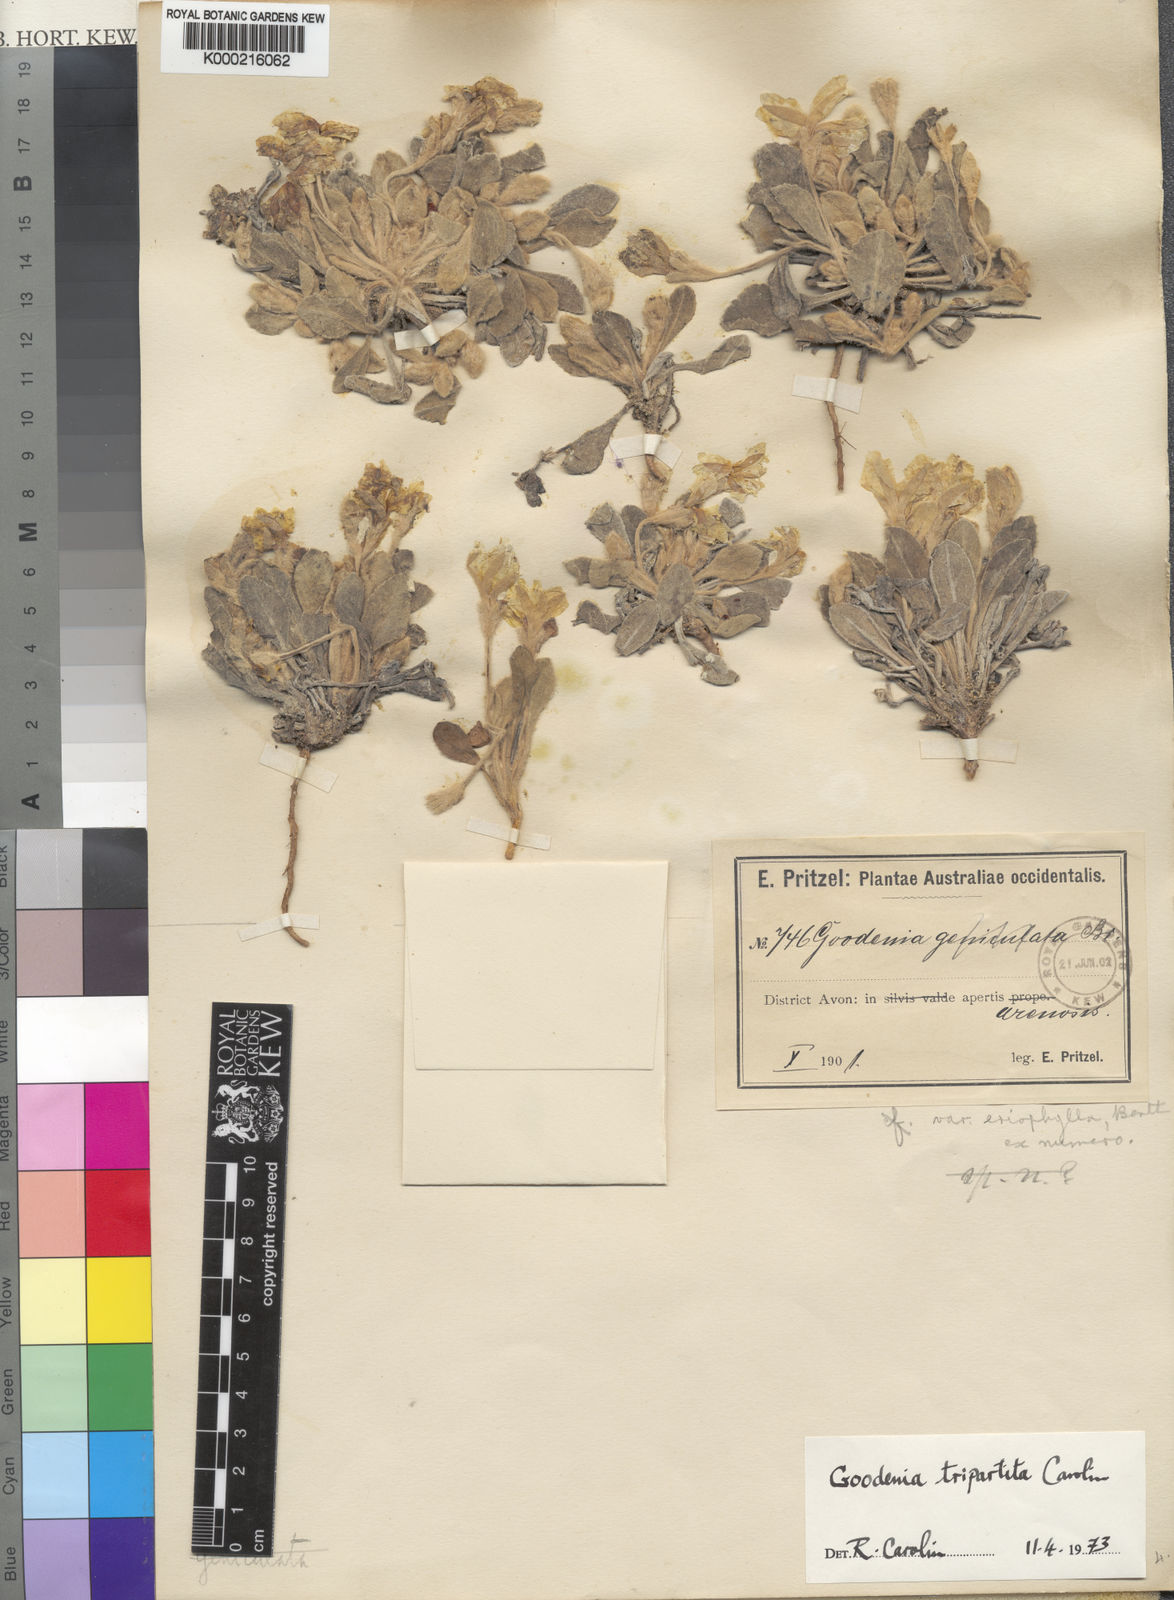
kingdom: Plantae
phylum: Tracheophyta
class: Magnoliopsida
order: Asterales
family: Goodeniaceae
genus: Goodenia
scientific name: Goodenia tripartita
